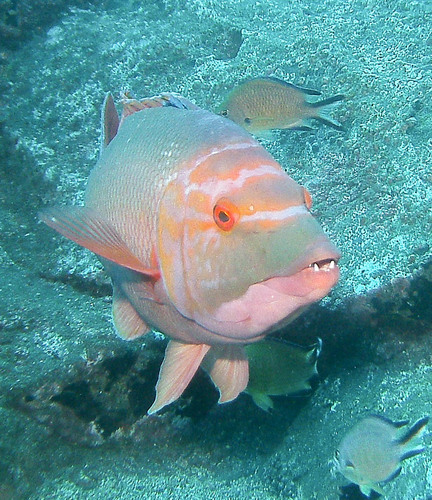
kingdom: Animalia
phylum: Chordata
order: Perciformes
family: Labridae
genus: Bodianus
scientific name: Bodianus scrofa
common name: Barred hogfish
